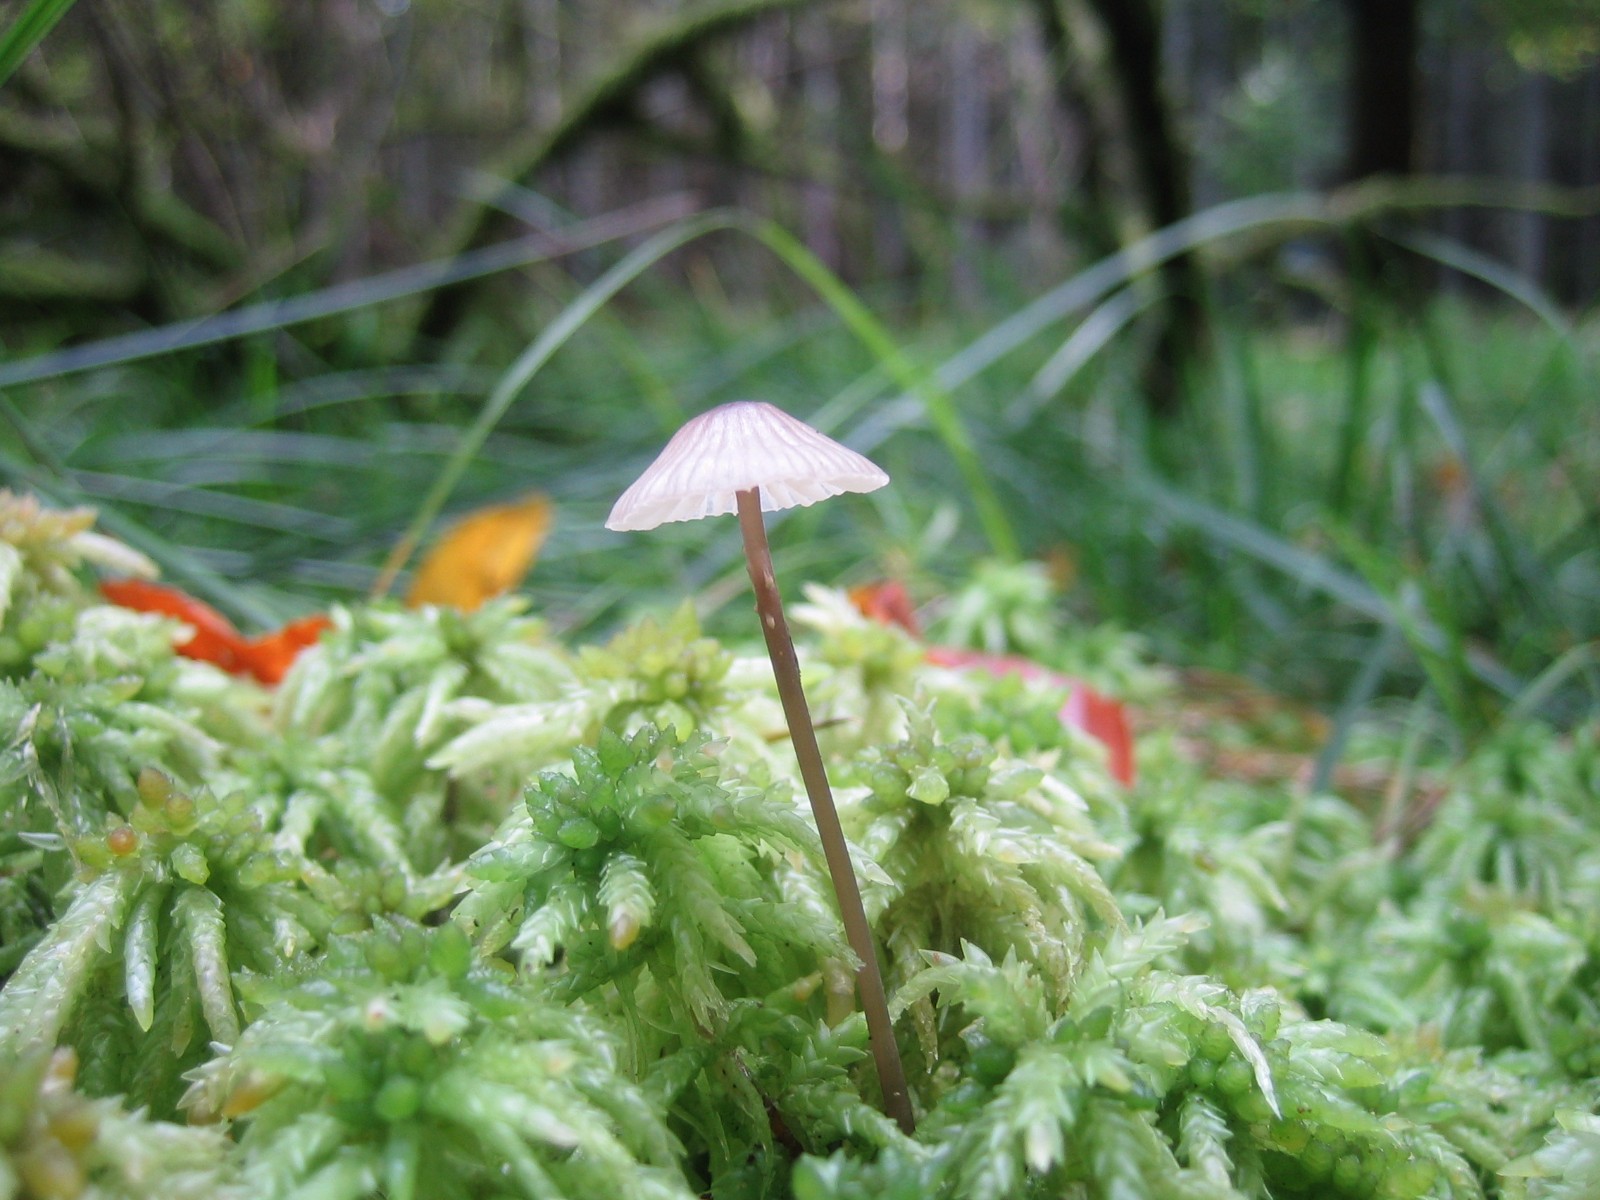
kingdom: Fungi
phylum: Basidiomycota
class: Agaricomycetes
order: Agaricales
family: Mycenaceae
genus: Mycena
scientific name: Mycena
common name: huesvamp
